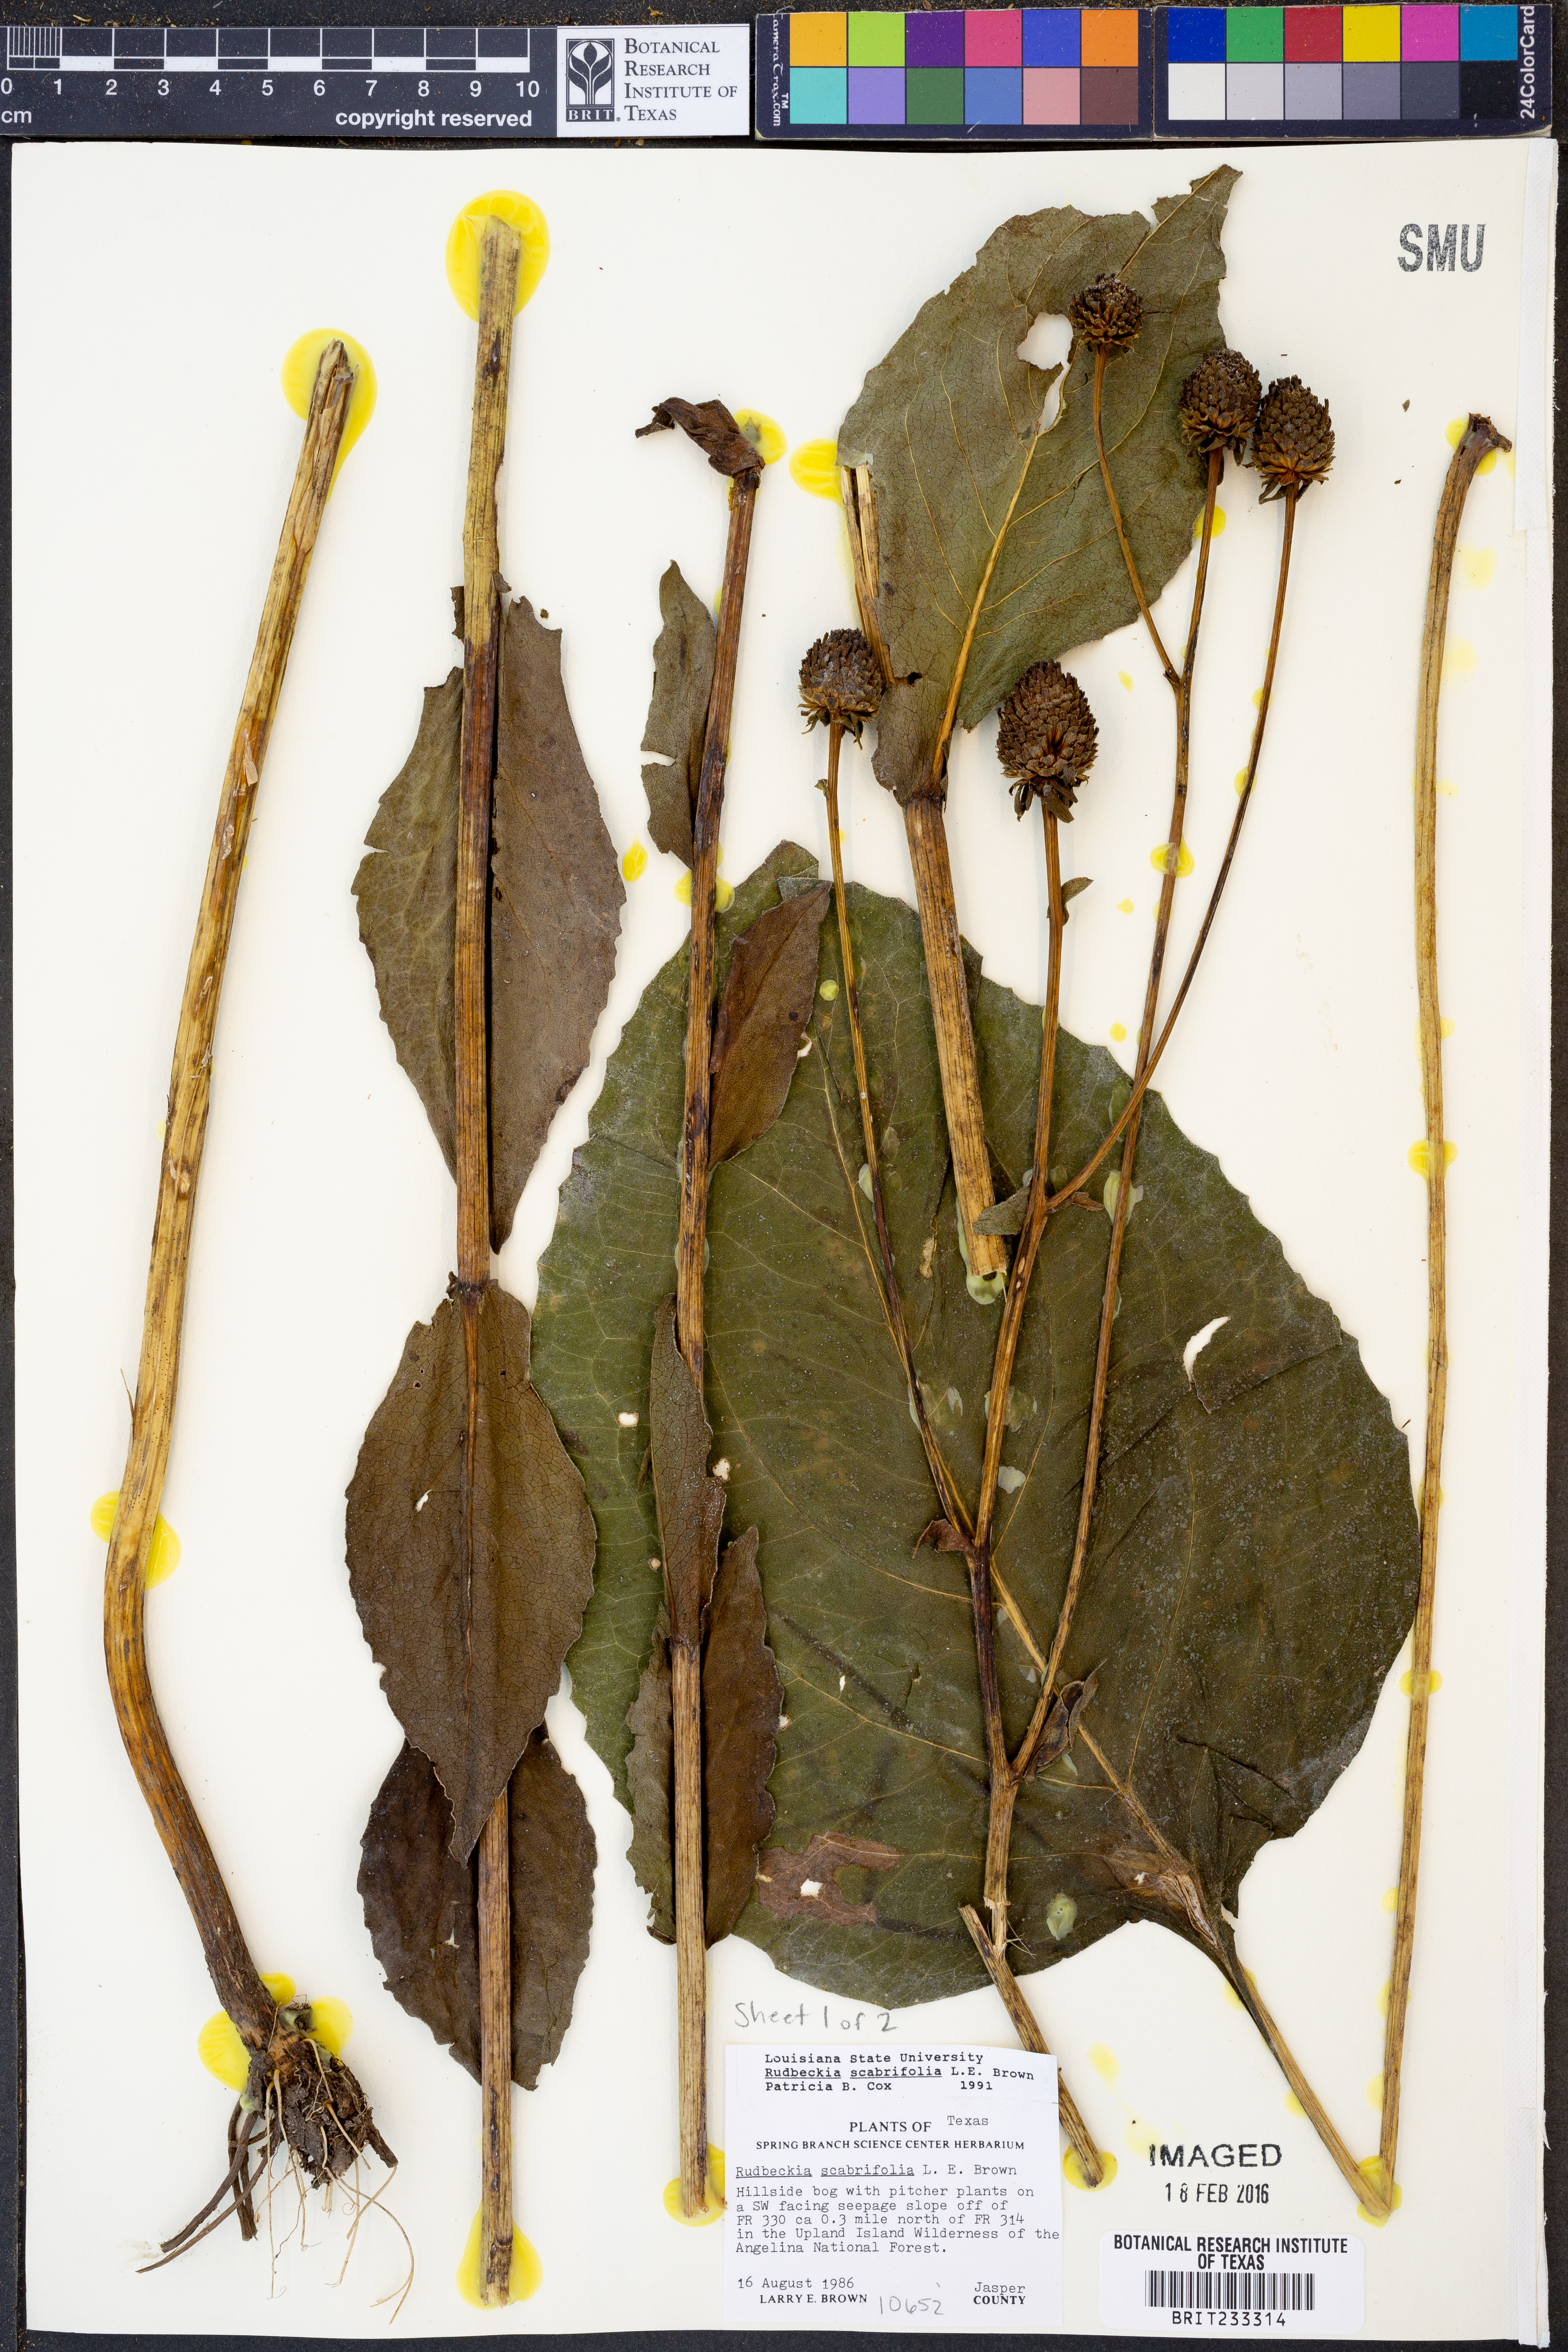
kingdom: Plantae
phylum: Tracheophyta
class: Magnoliopsida
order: Asterales
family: Asteraceae
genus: Rudbeckia
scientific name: Rudbeckia scabrifolia
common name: Rough-leaf coneflower
